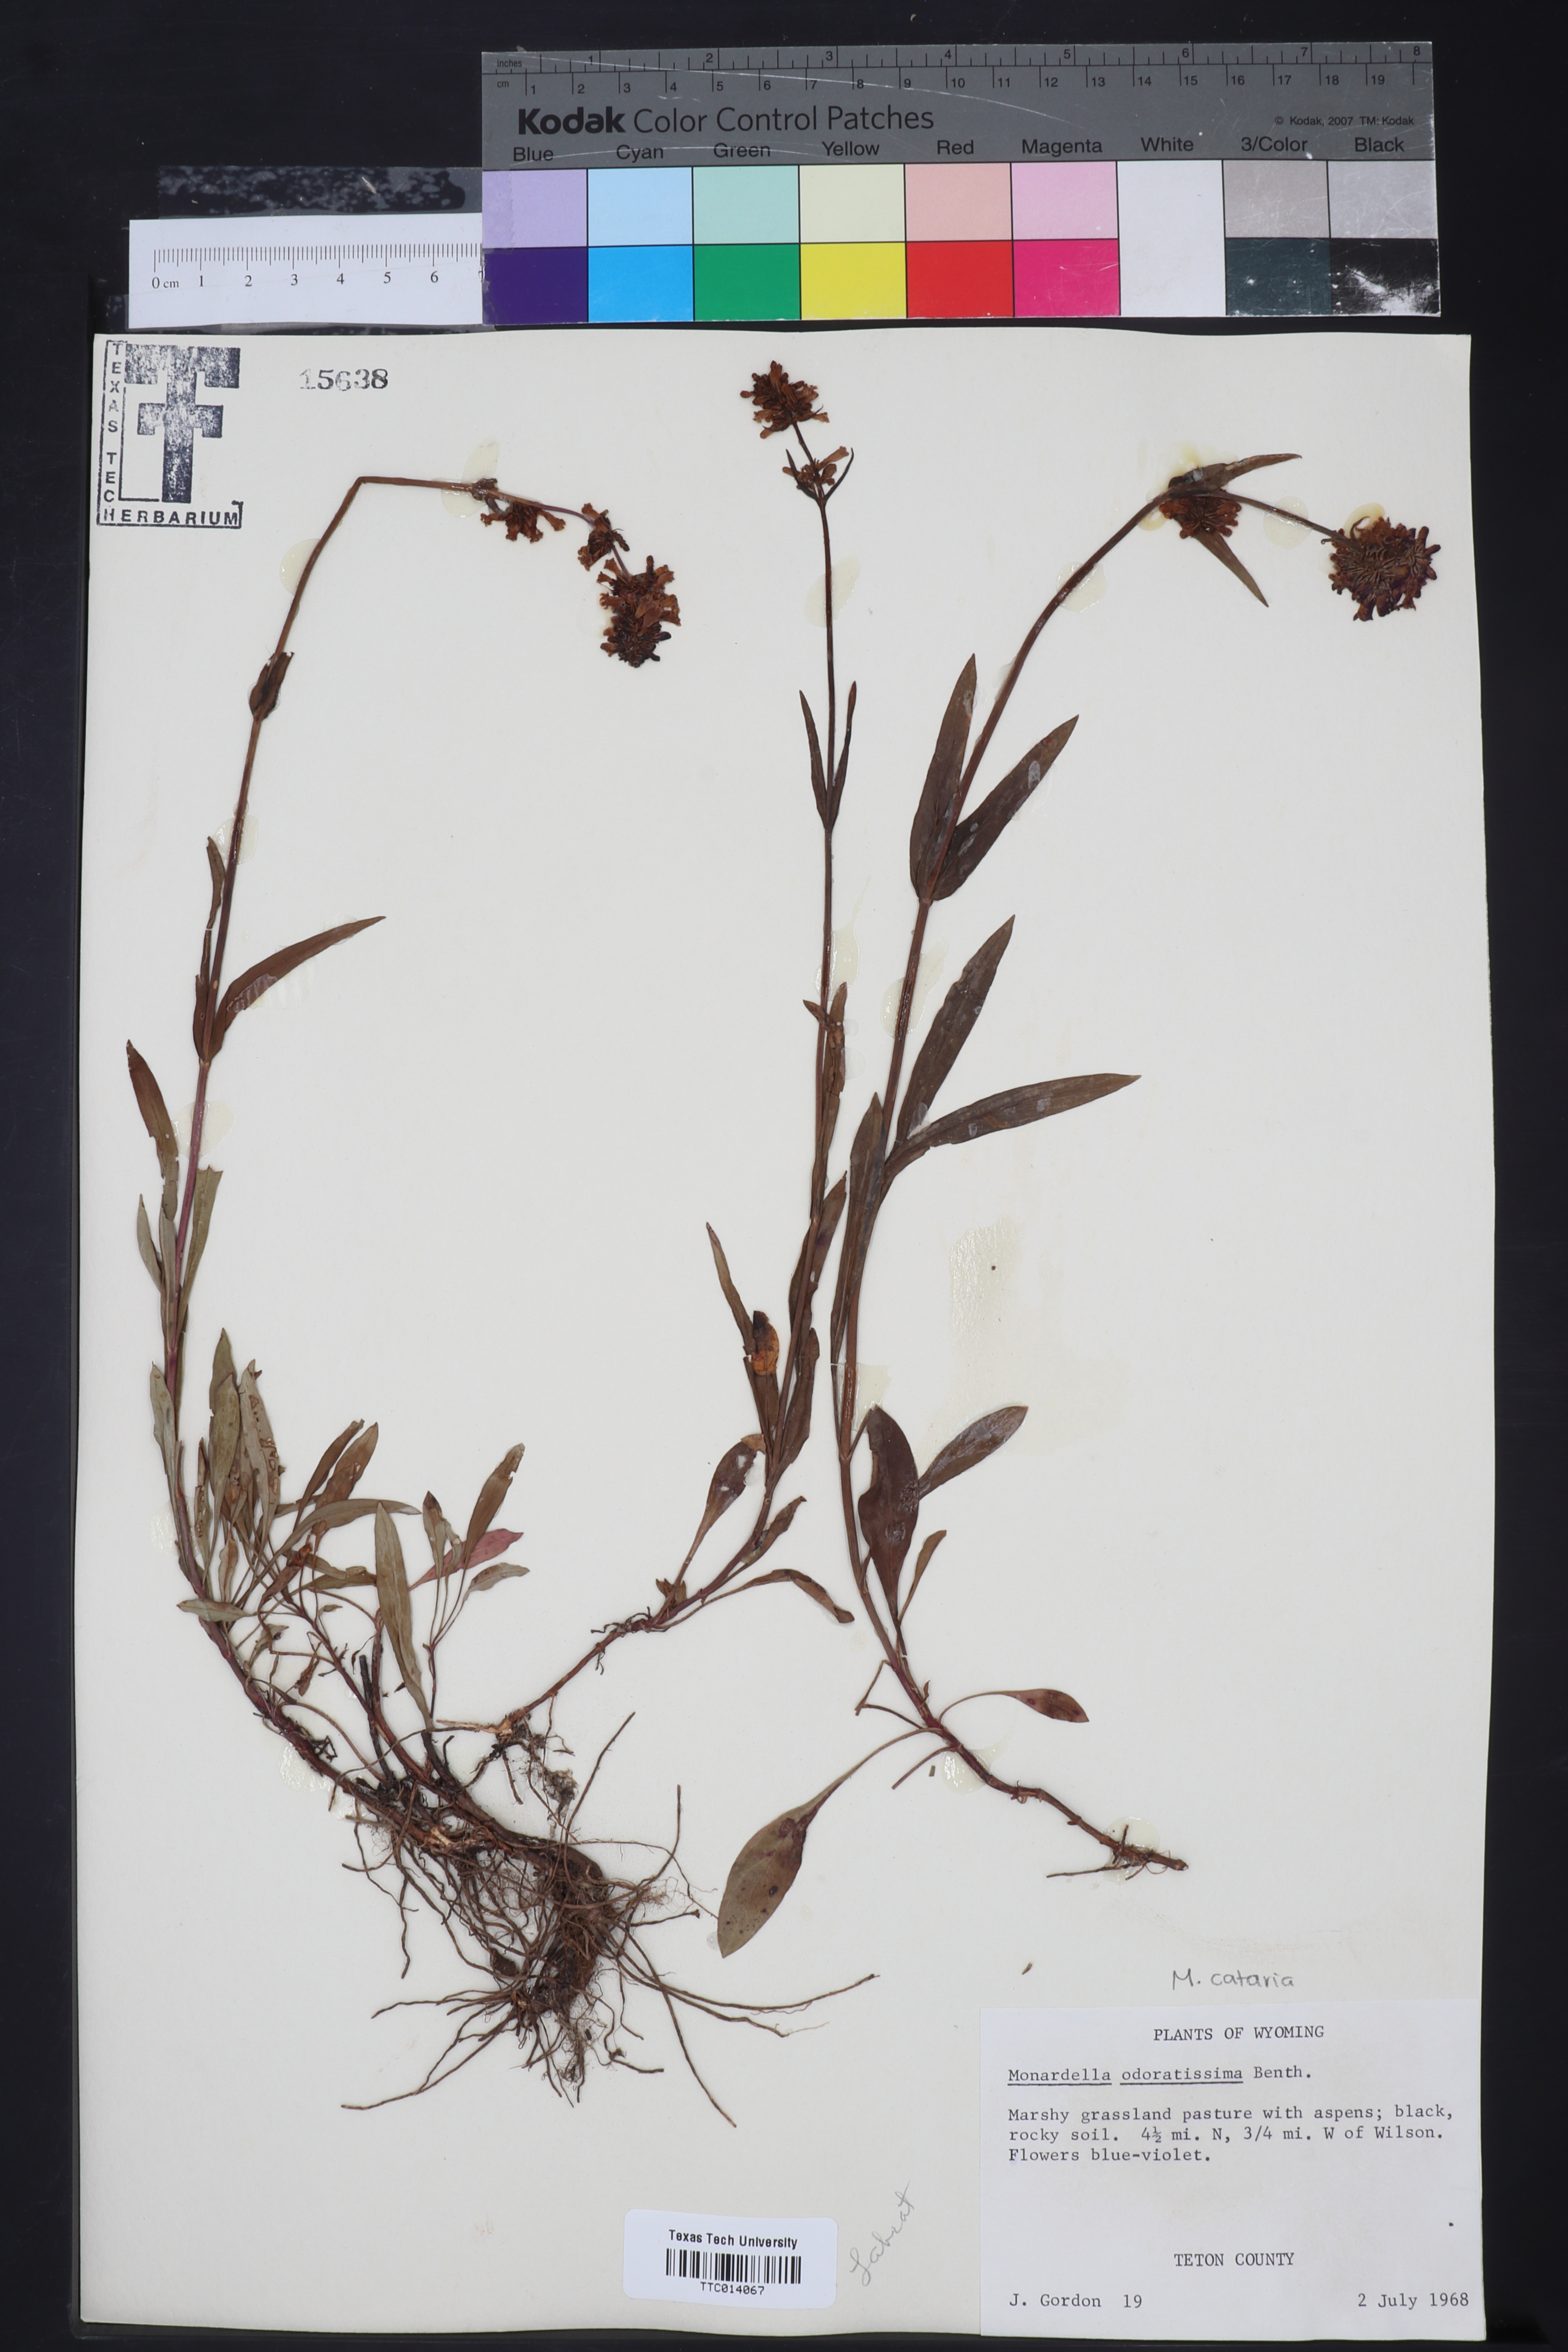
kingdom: Plantae
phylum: Tracheophyta
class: Magnoliopsida
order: Lamiales
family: Lamiaceae
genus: Monardella
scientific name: Monardella odoratissima
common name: Pacific monardella
